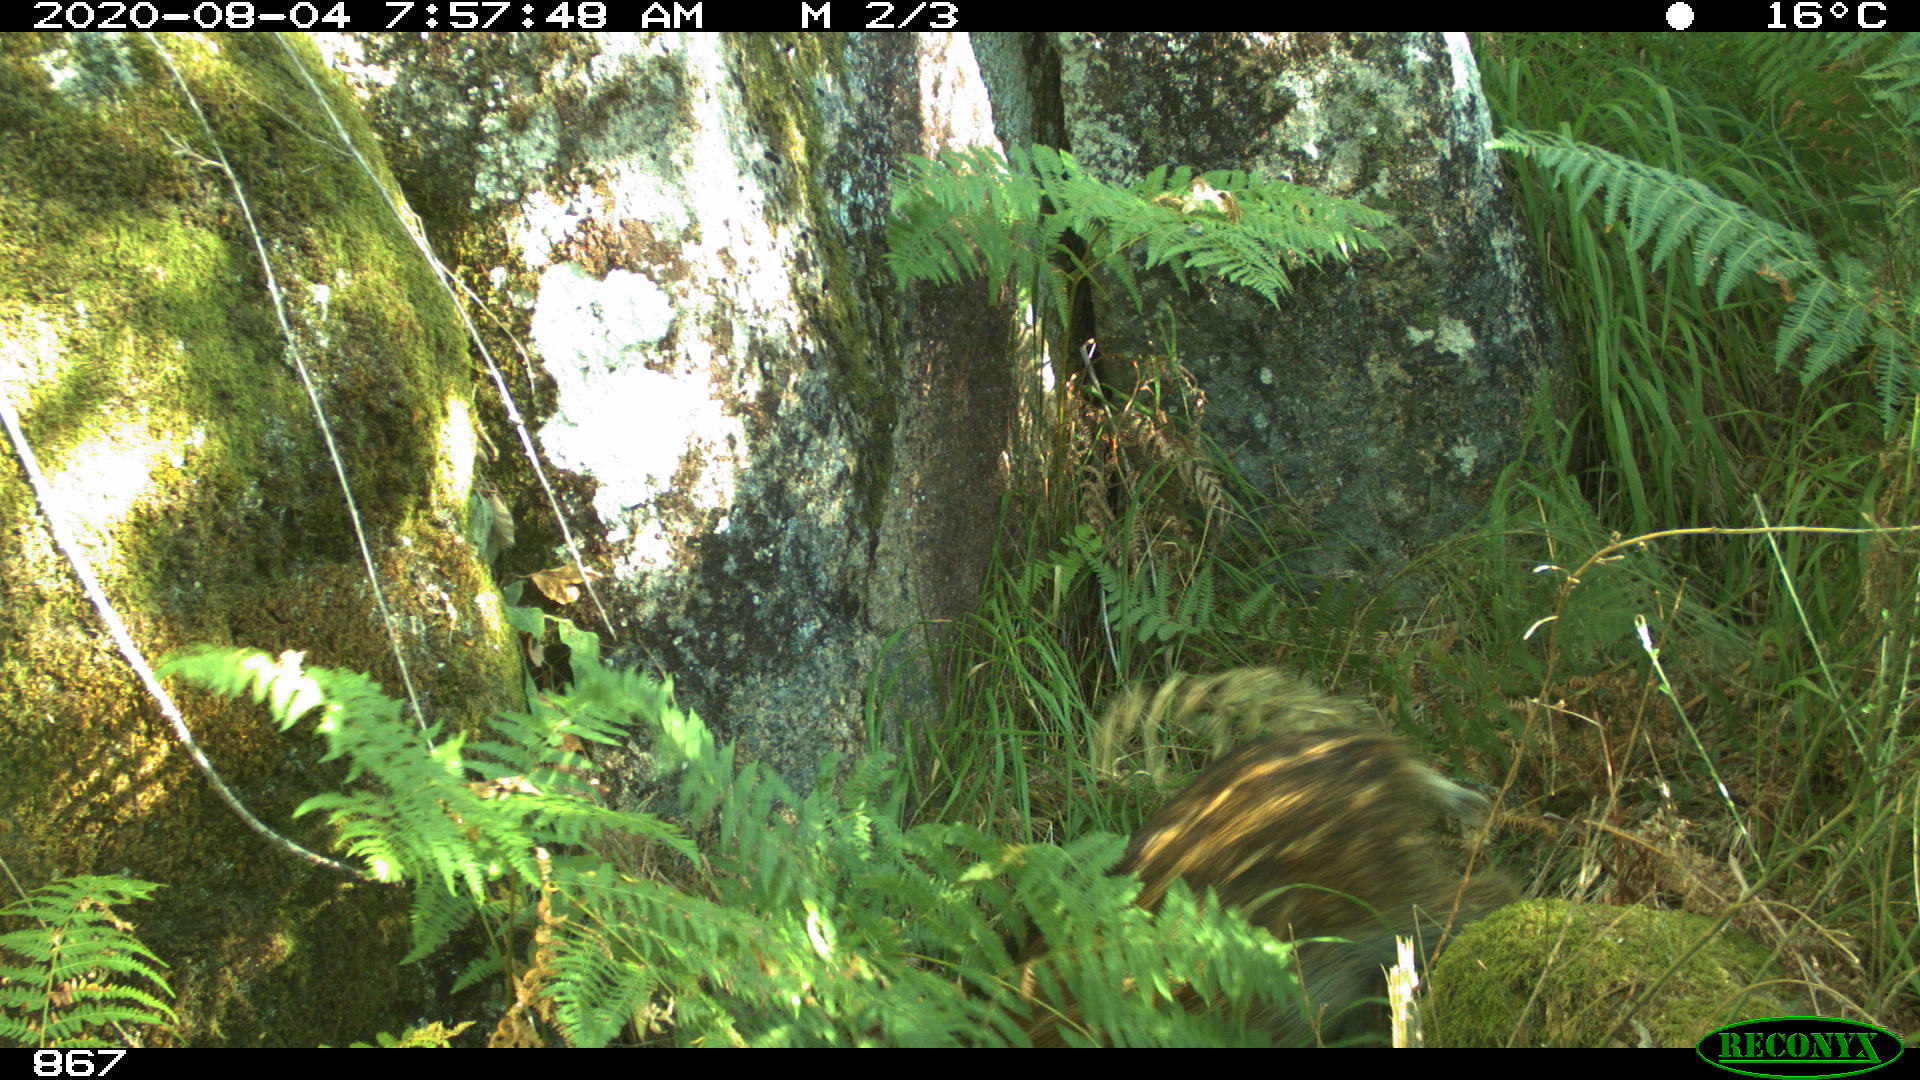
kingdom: Animalia
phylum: Chordata
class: Mammalia
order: Artiodactyla
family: Suidae
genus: Sus
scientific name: Sus scrofa
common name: Wild boar
